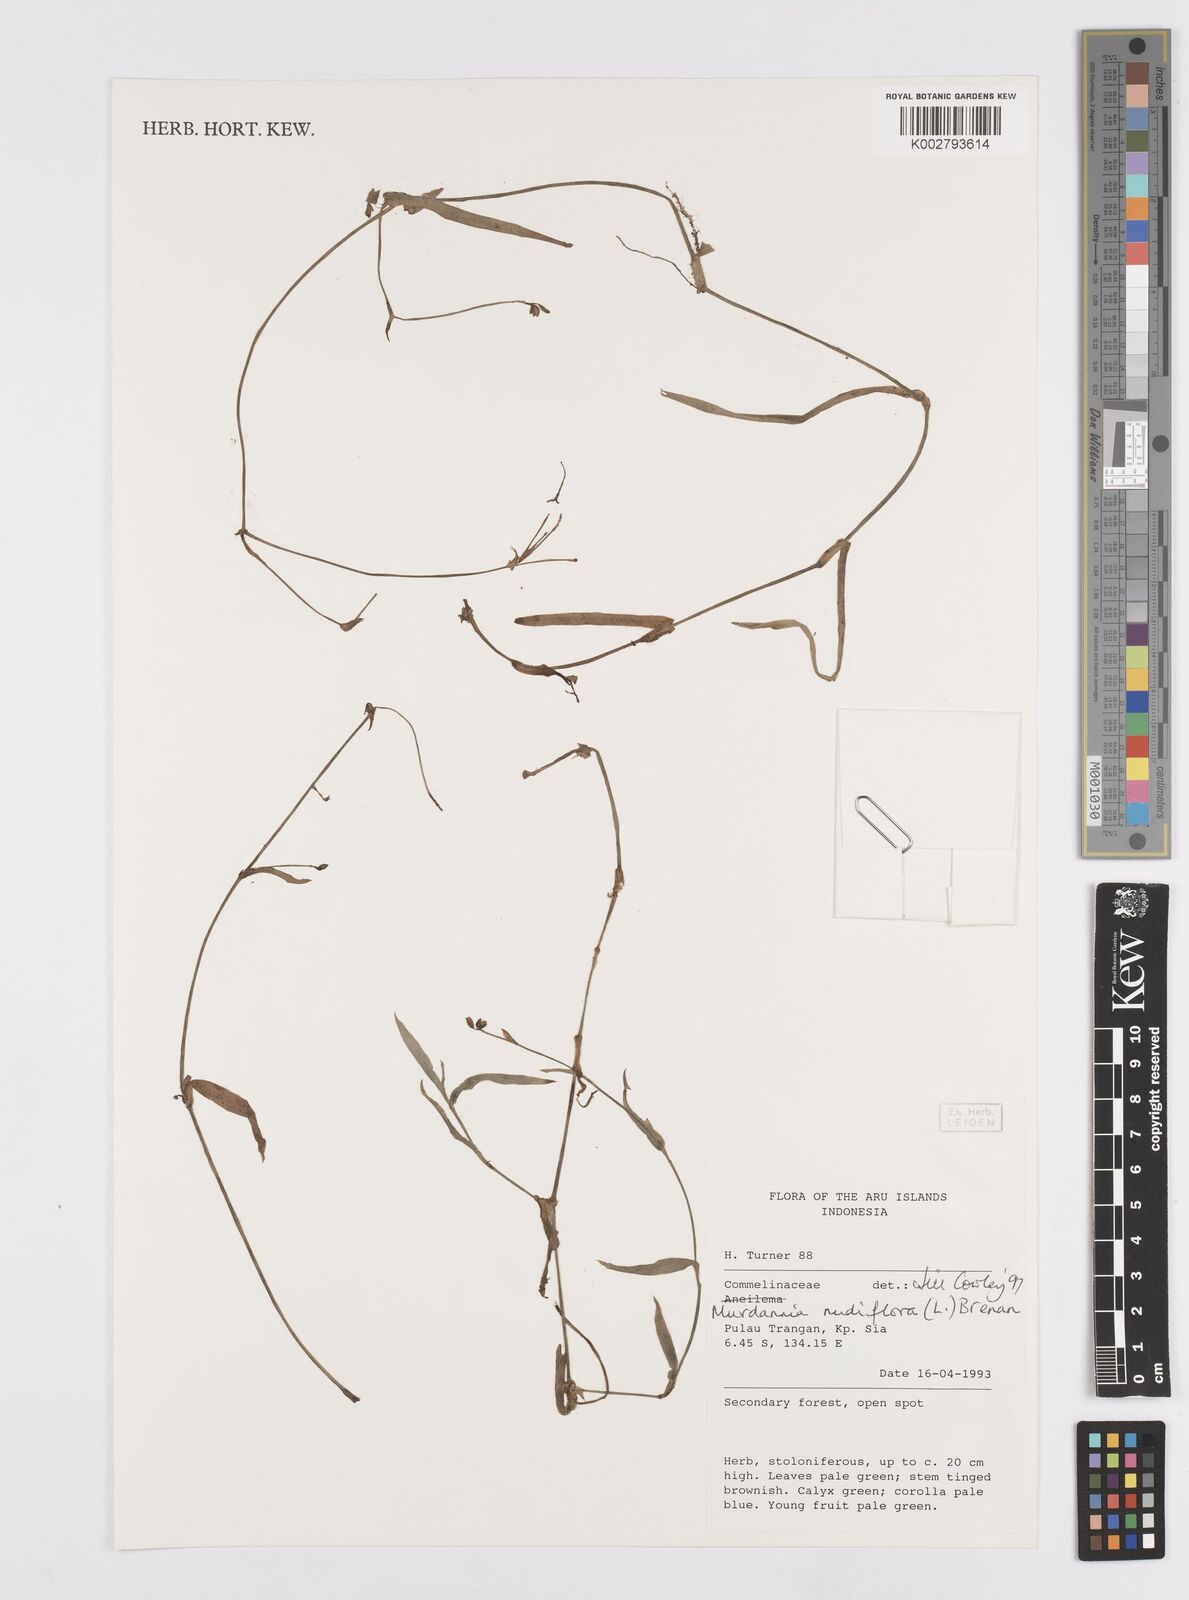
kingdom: Plantae
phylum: Tracheophyta
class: Liliopsida
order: Commelinales
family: Commelinaceae
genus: Murdannia
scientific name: Murdannia nudiflora
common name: Nakedstem dewflower
